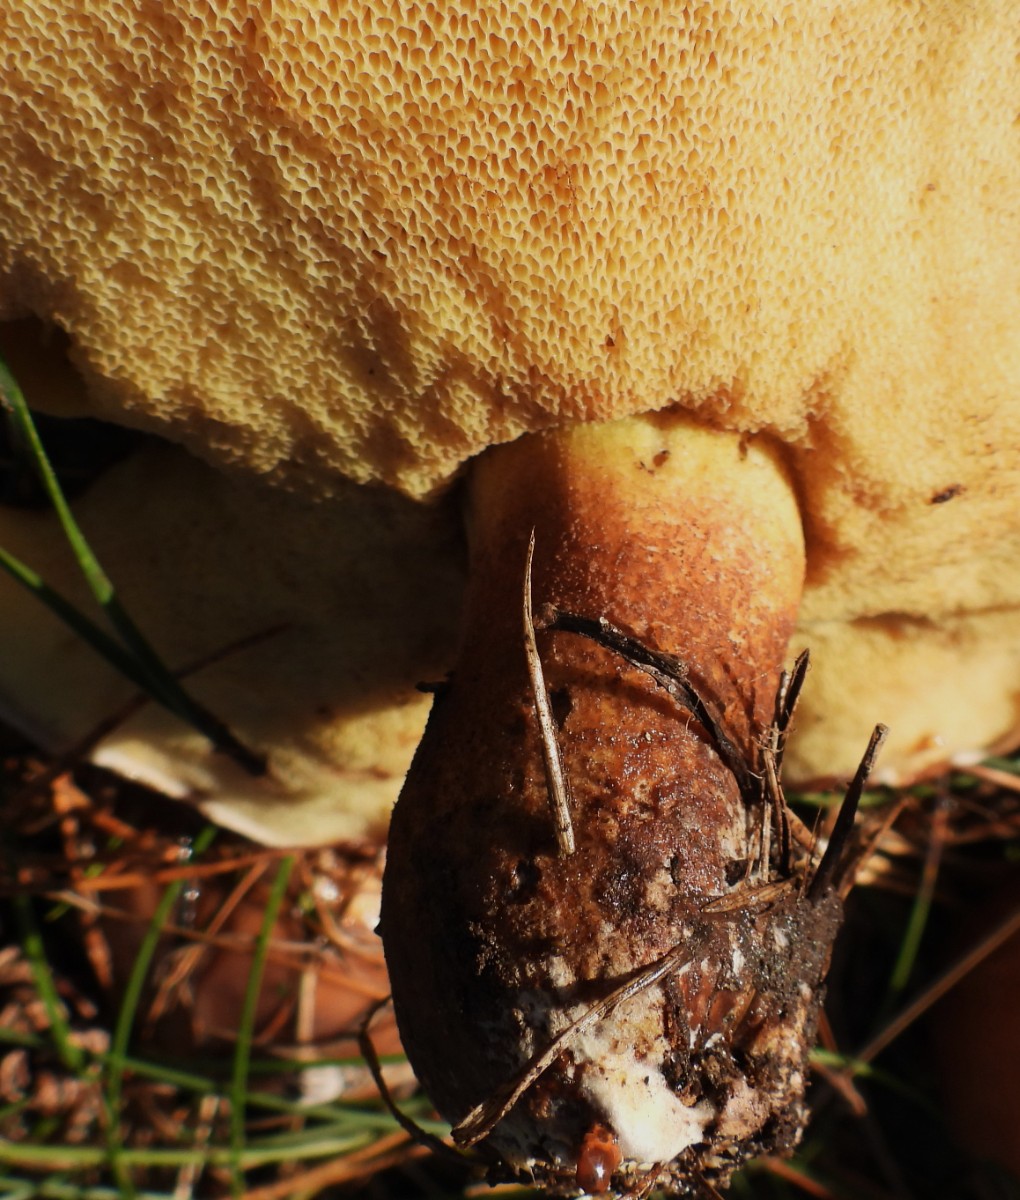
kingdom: Fungi
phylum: Basidiomycota
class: Agaricomycetes
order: Boletales
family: Suillaceae
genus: Suillus
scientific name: Suillus luteus
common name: brungul slimrørhat
